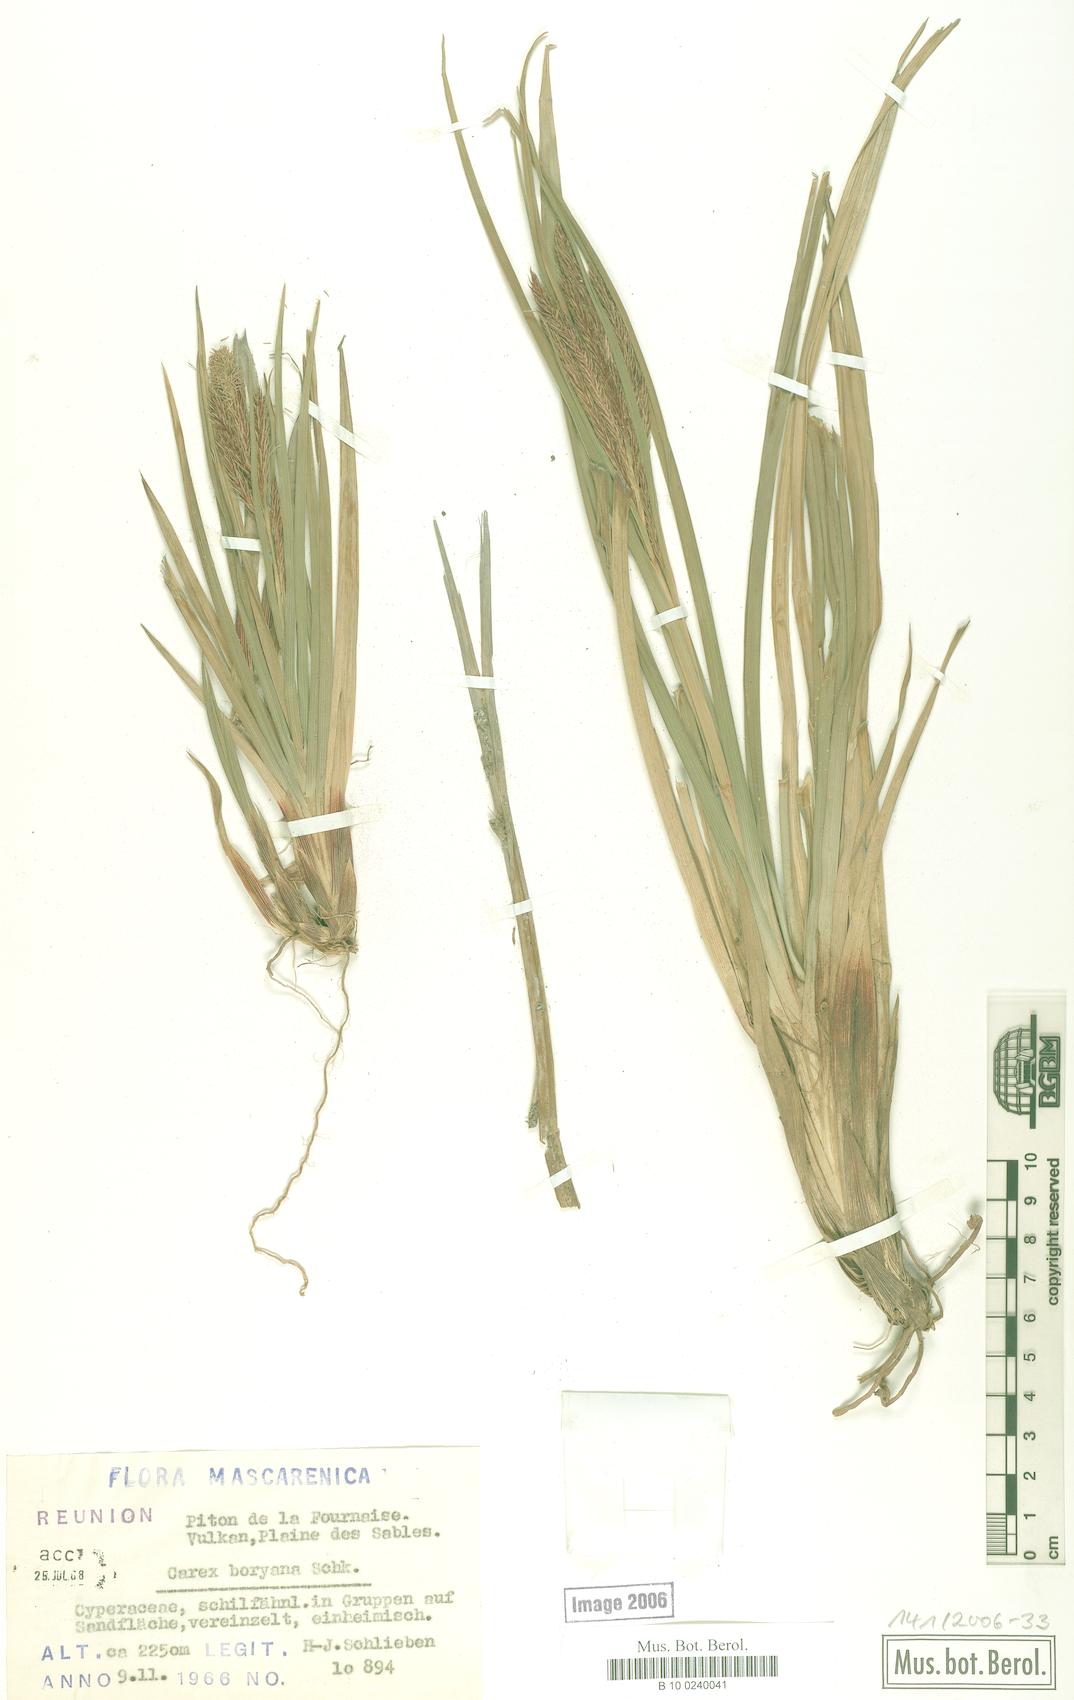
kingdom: Plantae
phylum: Tracheophyta
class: Liliopsida
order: Poales
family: Cyperaceae
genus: Carex
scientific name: Carex borbonica
